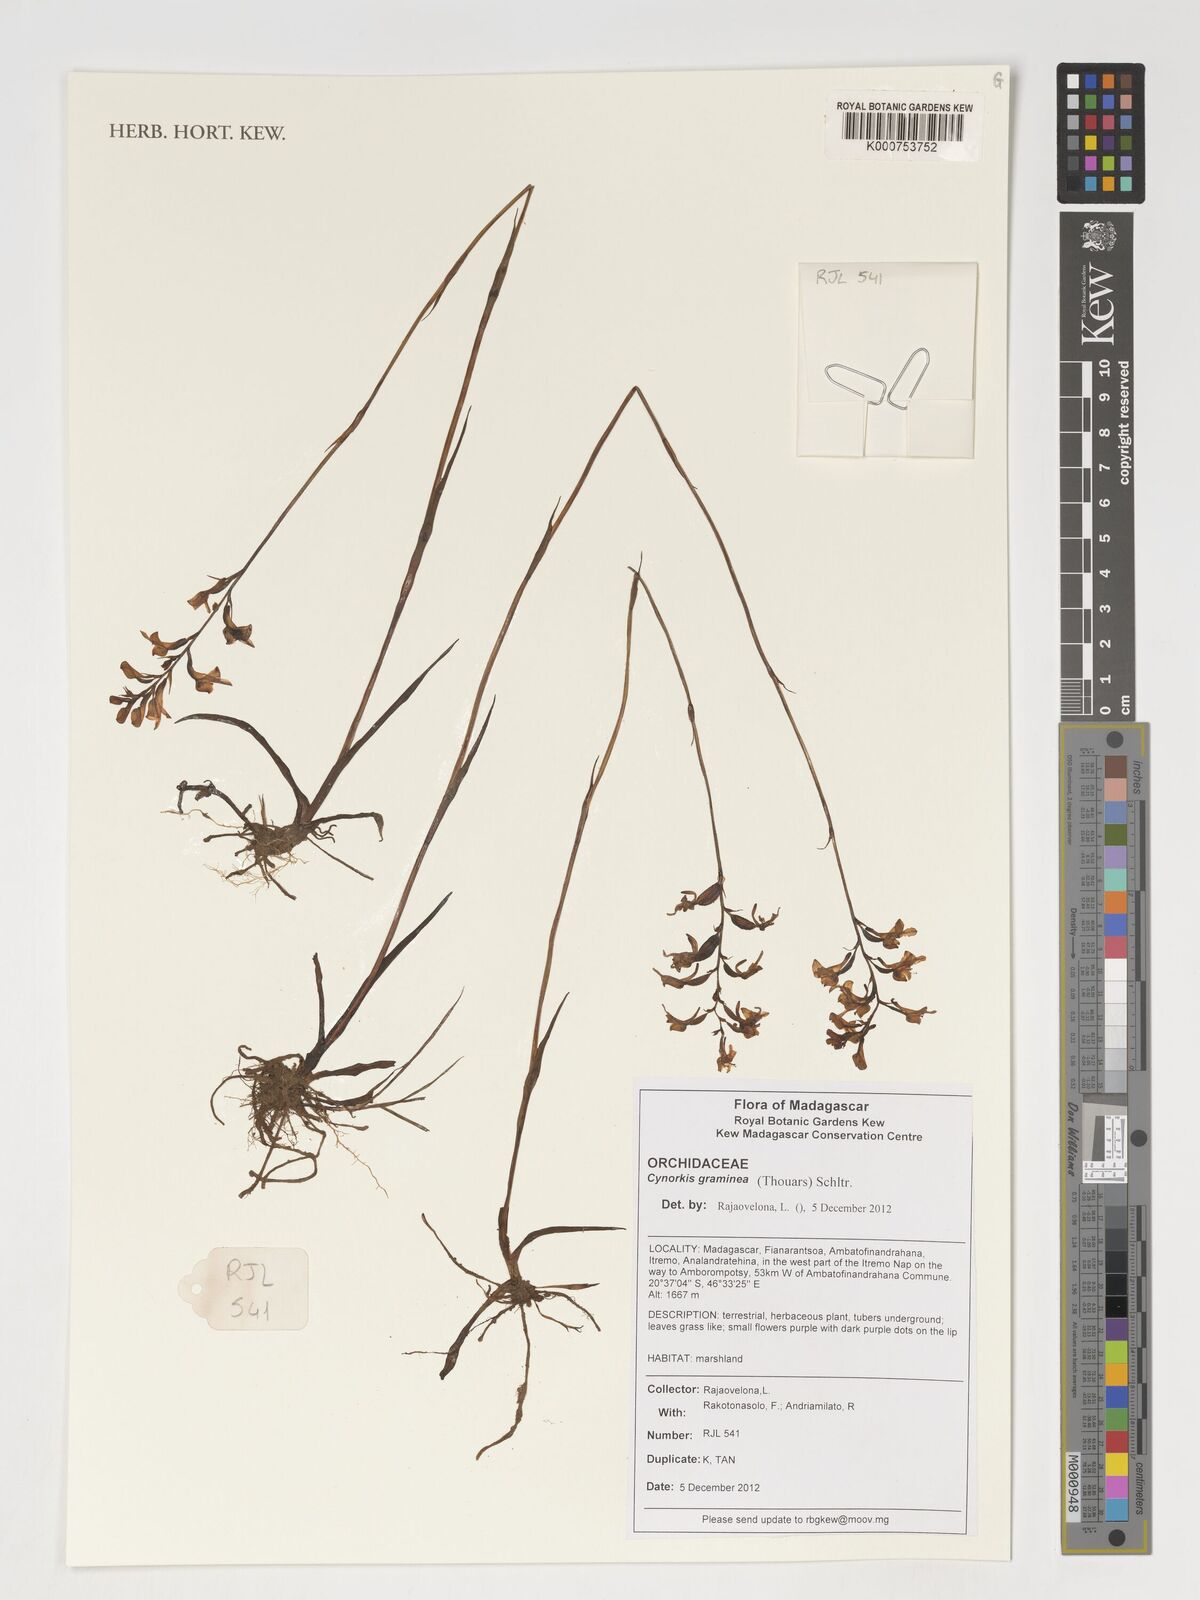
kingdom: Plantae
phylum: Tracheophyta
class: Liliopsida
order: Asparagales
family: Orchidaceae
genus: Cynorkis
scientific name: Cynorkis graminea
